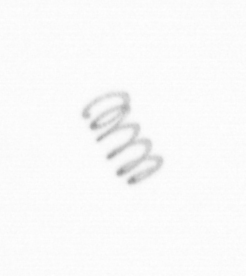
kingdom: Chromista
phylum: Ochrophyta
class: Bacillariophyceae
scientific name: Bacillariophyceae
